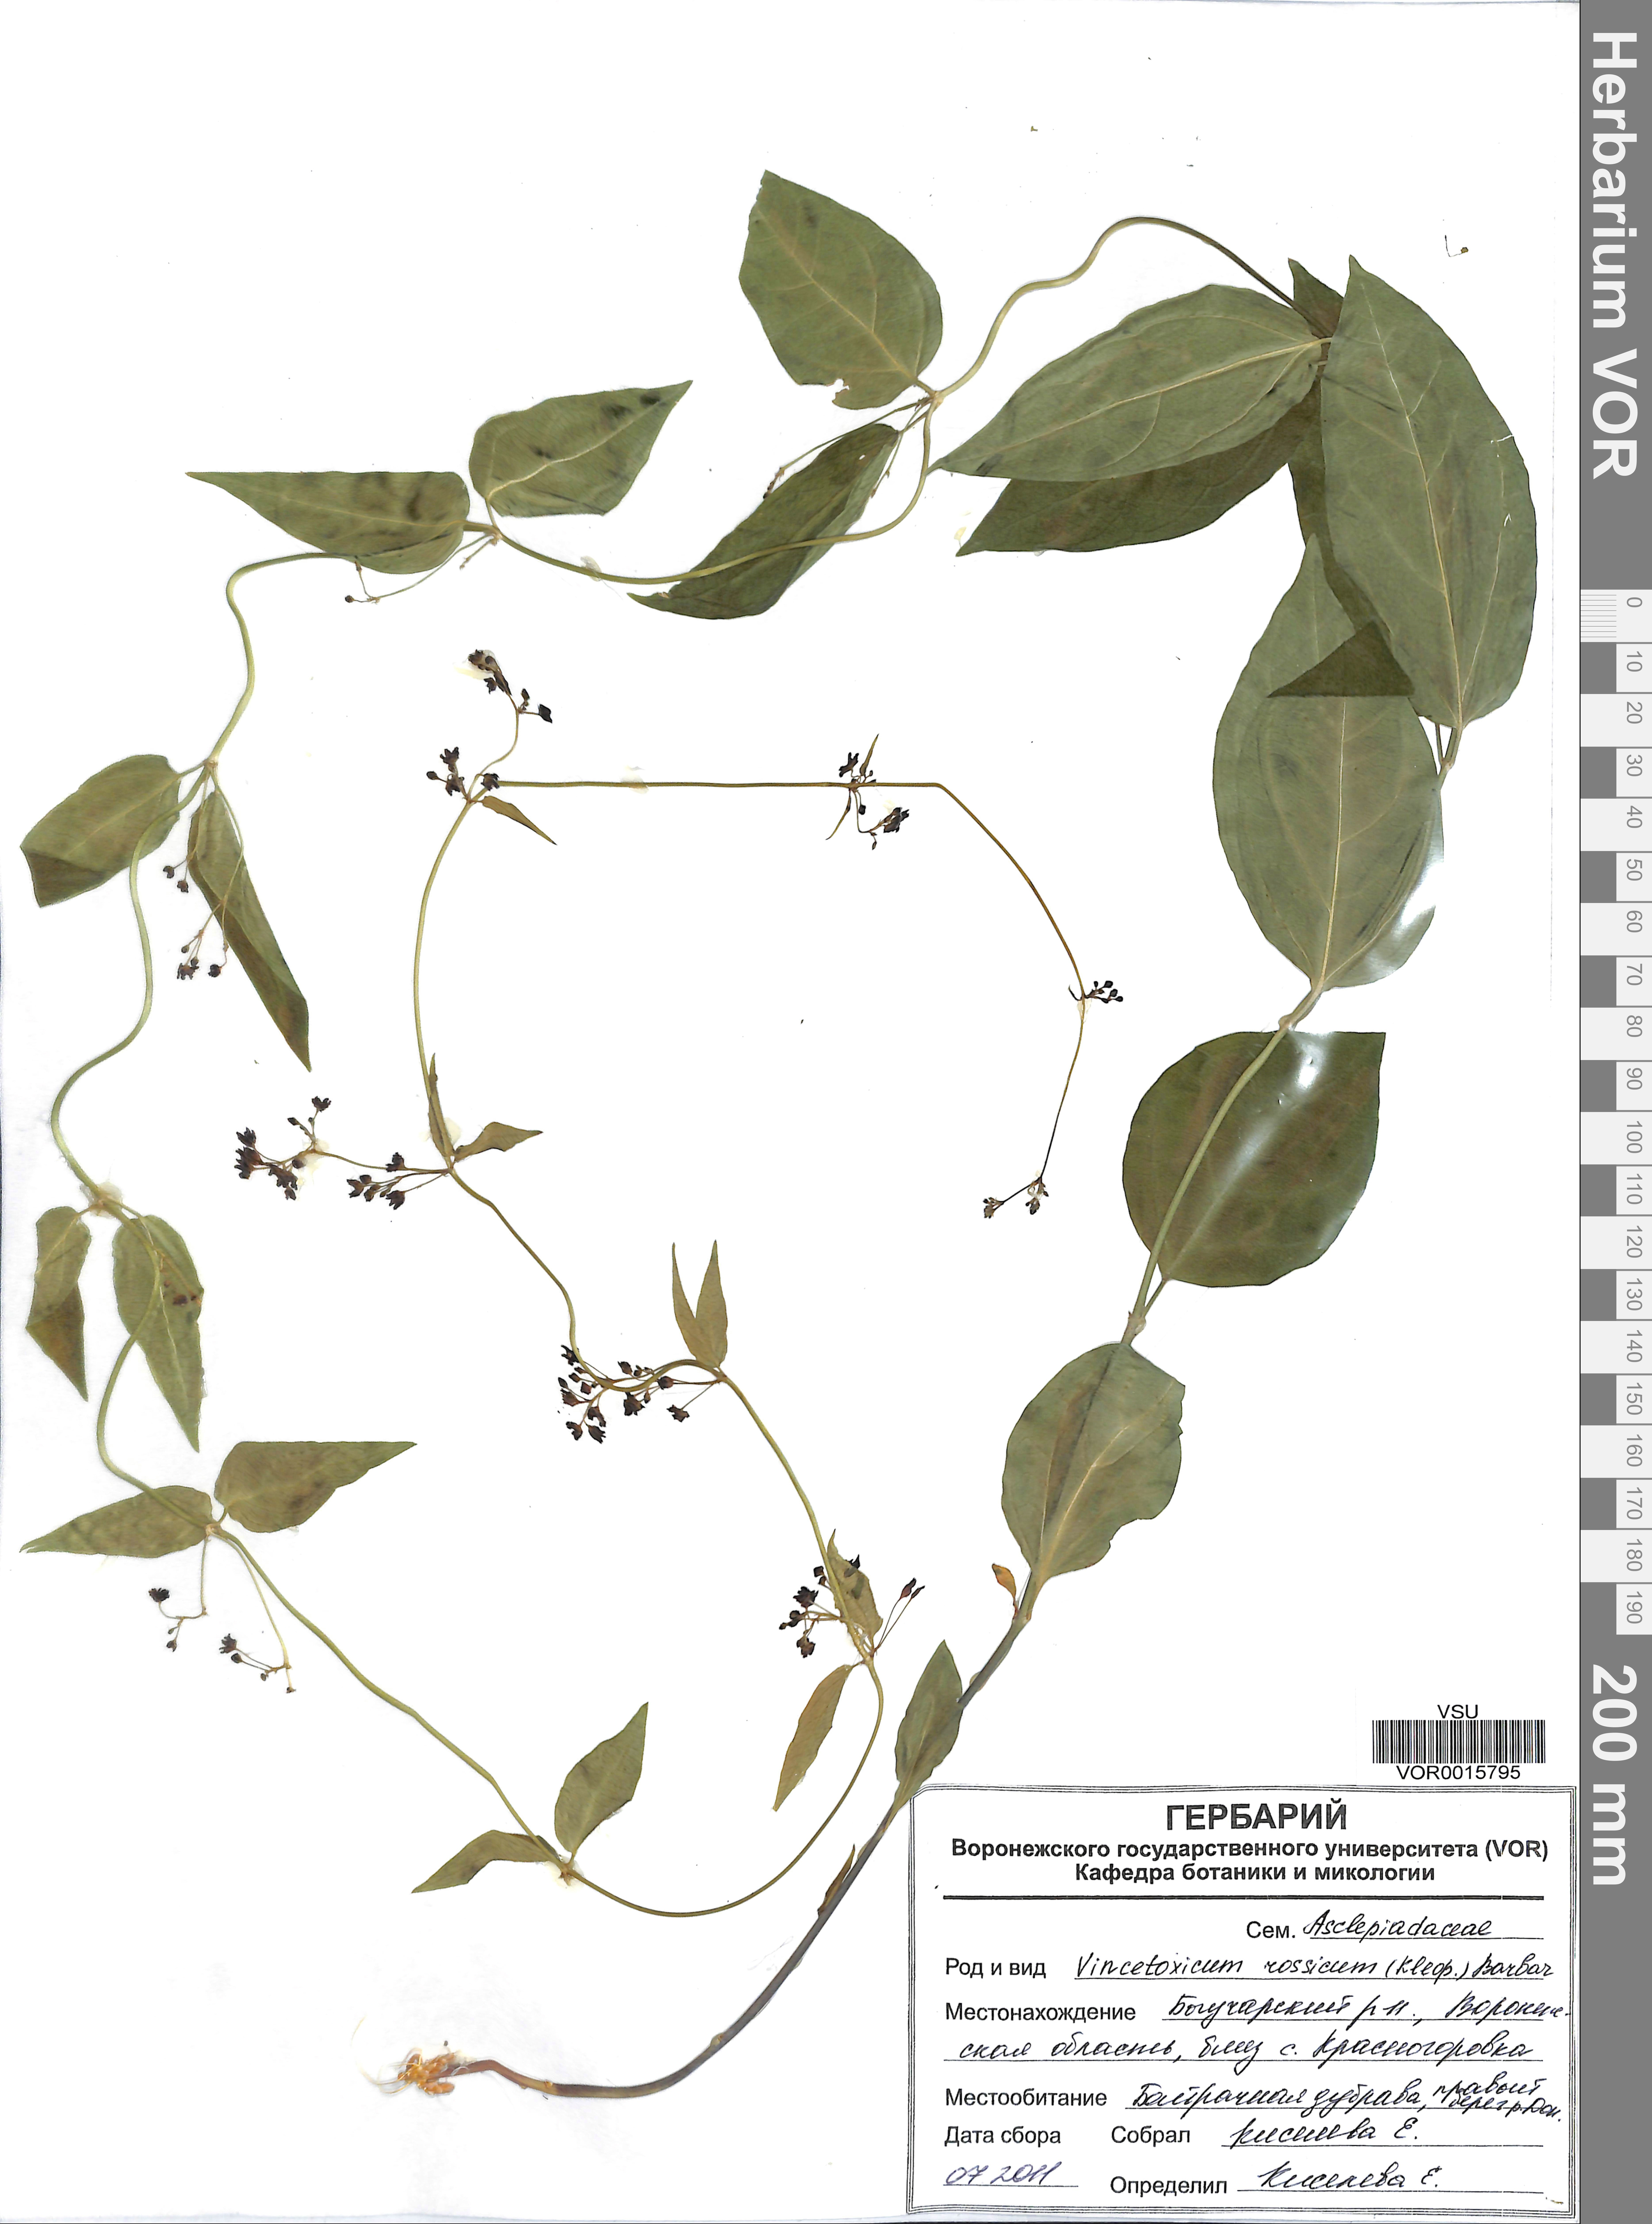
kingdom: Plantae
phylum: Tracheophyta
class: Magnoliopsida
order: Gentianales
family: Apocynaceae
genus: Vincetoxicum
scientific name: Vincetoxicum rossicum
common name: Dog-strangling vine
